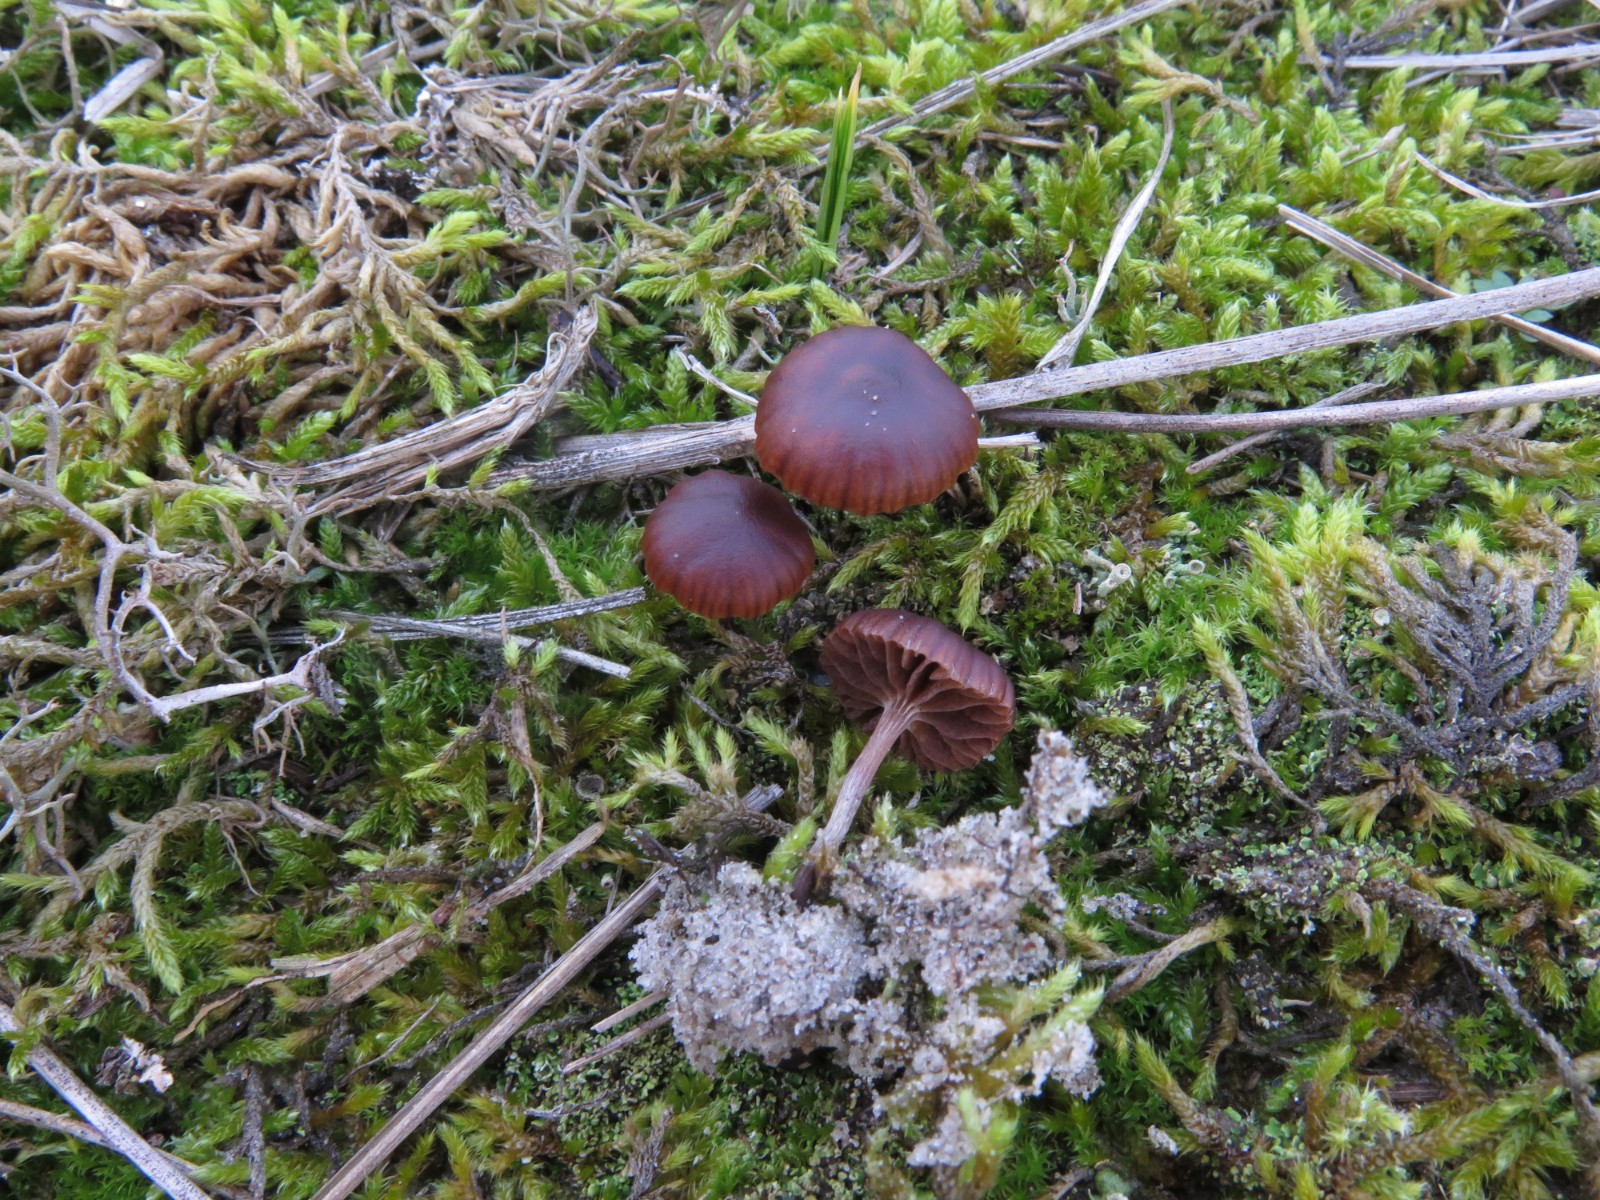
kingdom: Fungi
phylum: Basidiomycota
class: Agaricomycetes
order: Agaricales
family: Strophariaceae
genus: Deconica
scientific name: Deconica montana
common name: rødbrun stråhat
